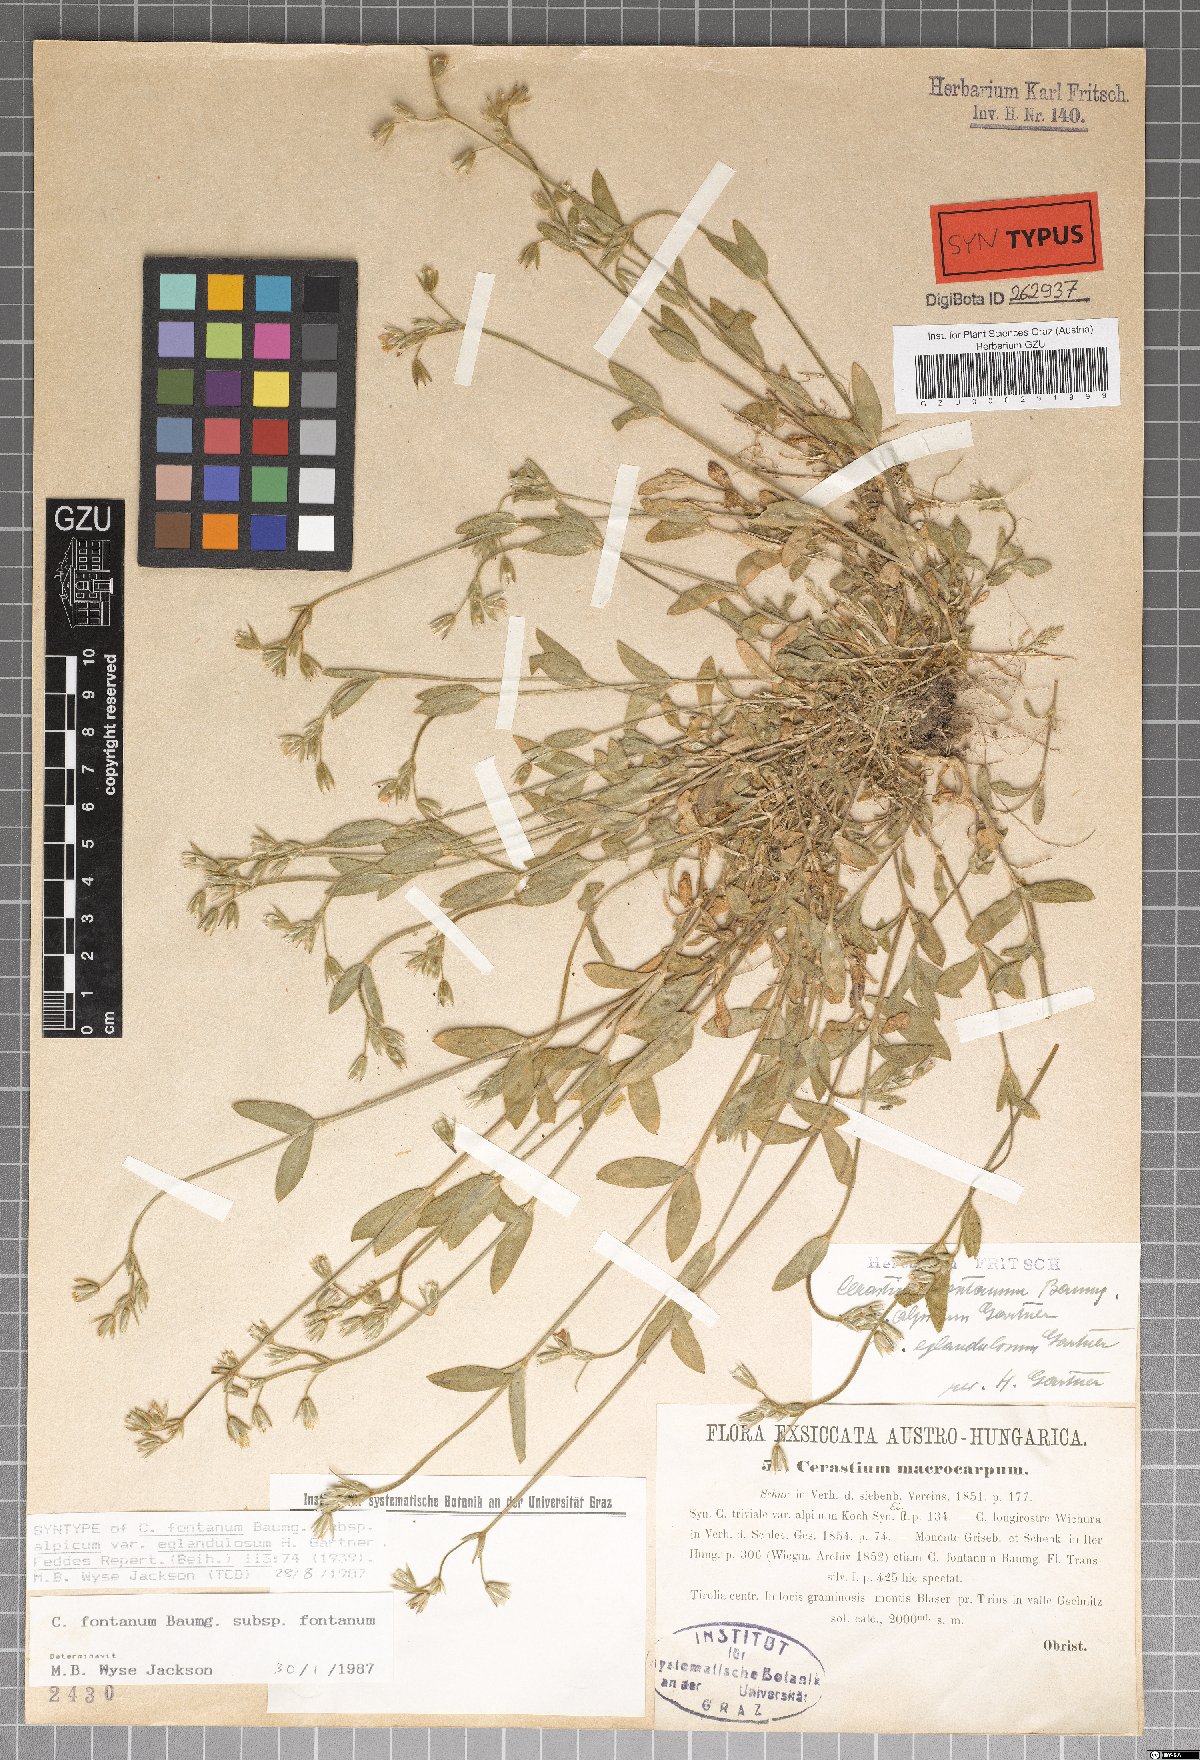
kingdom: Plantae
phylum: Tracheophyta
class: Magnoliopsida
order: Caryophyllales
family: Caryophyllaceae
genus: Cerastium
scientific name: Cerastium holosteoides
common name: Big chickweed
